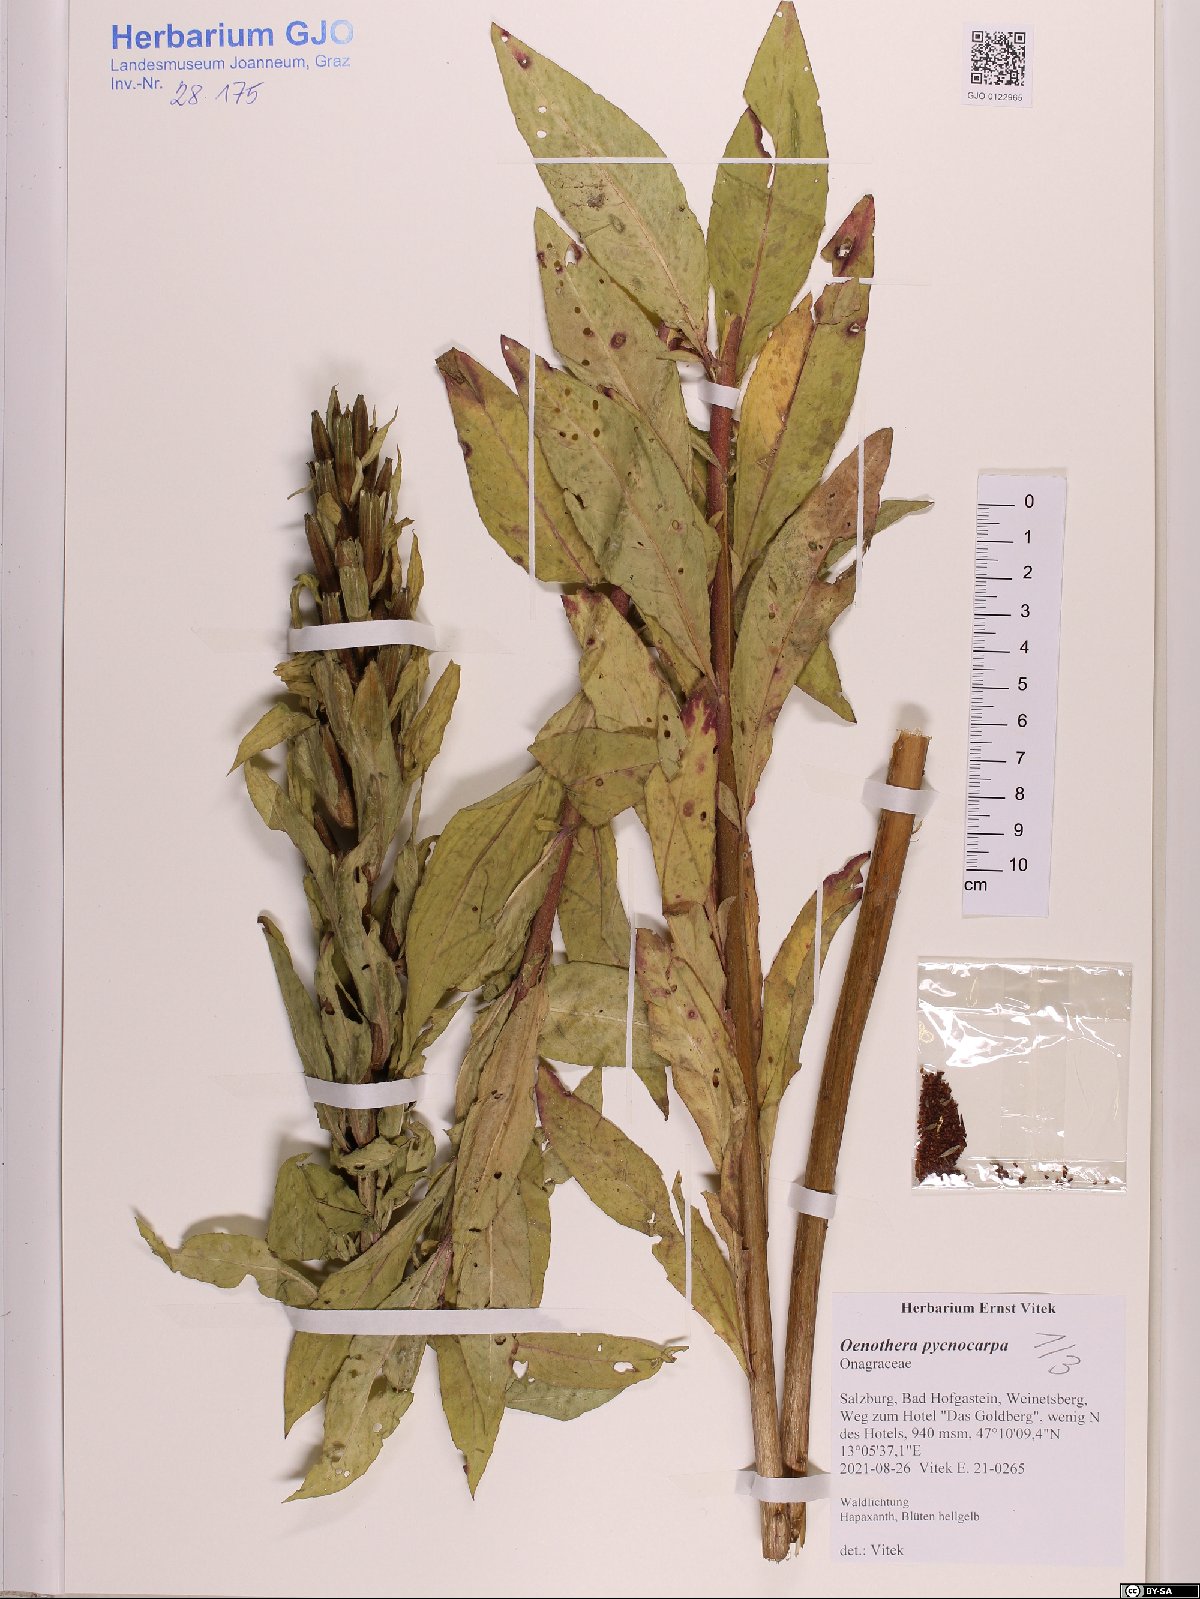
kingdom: Plantae
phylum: Tracheophyta
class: Magnoliopsida
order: Myrtales
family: Onagraceae
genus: Oenothera
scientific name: Oenothera biennis
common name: Common evening-primrose
